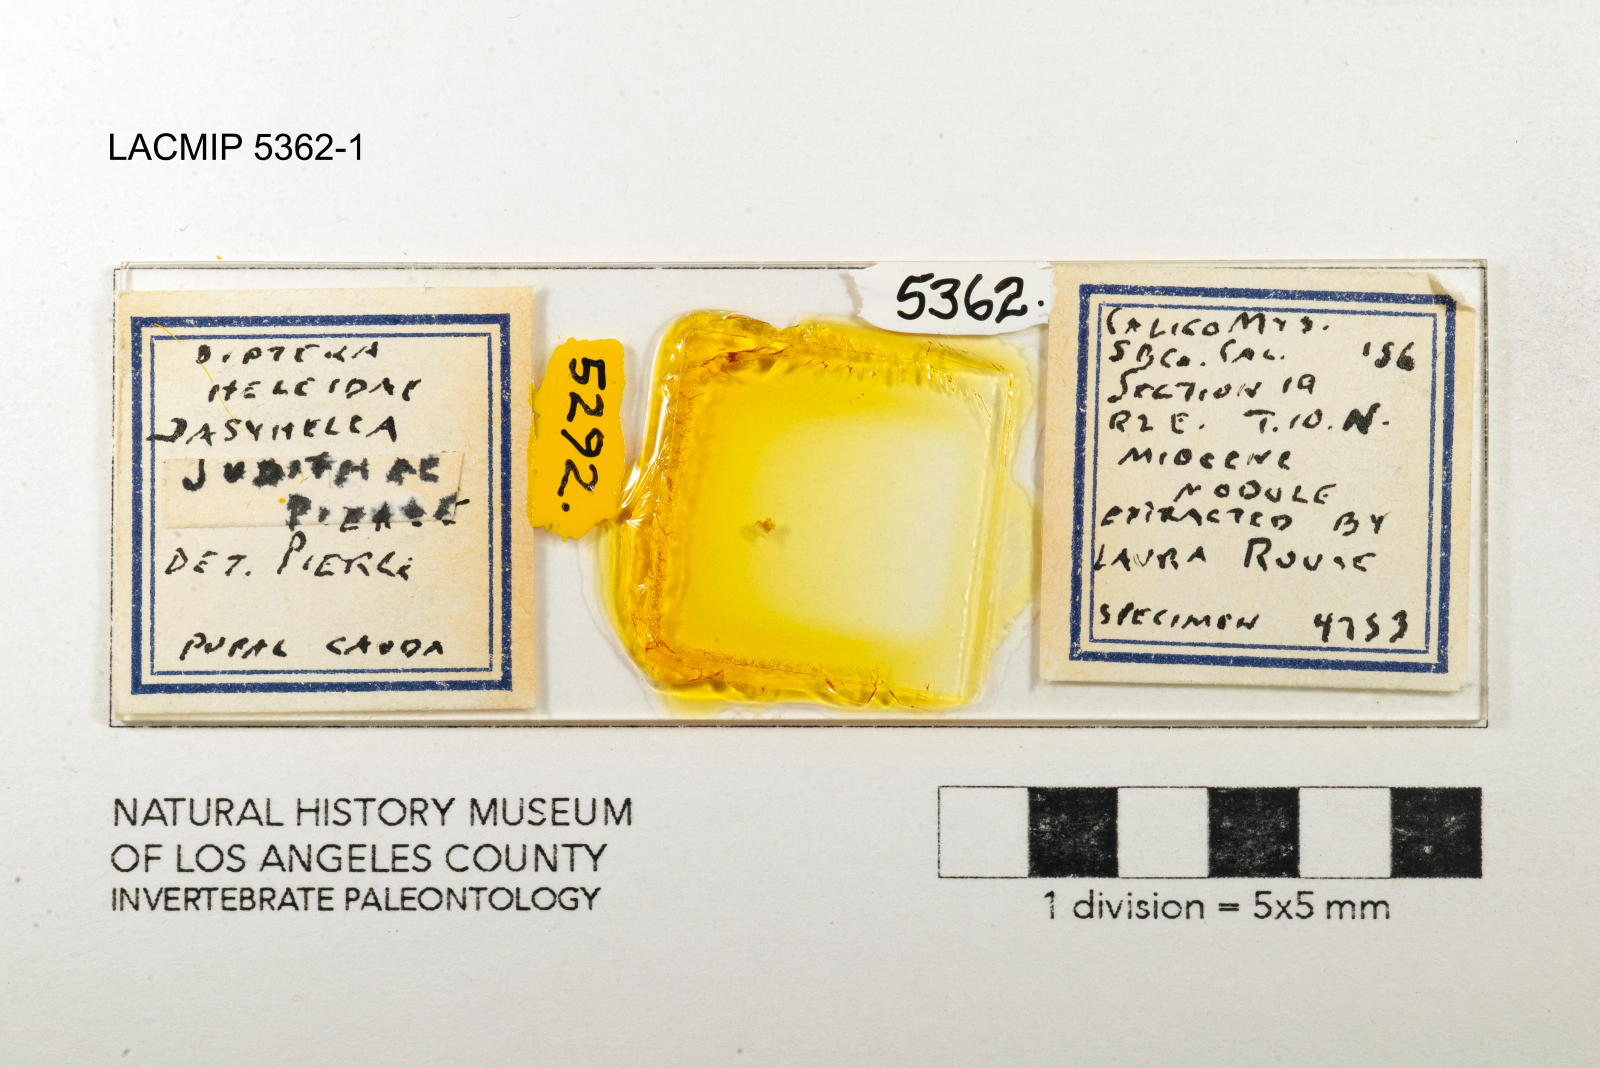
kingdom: Animalia
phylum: Arthropoda
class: Insecta
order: Diptera
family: Ceratopogonidae
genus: Dasyhelea
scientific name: Dasyhelea judithae
